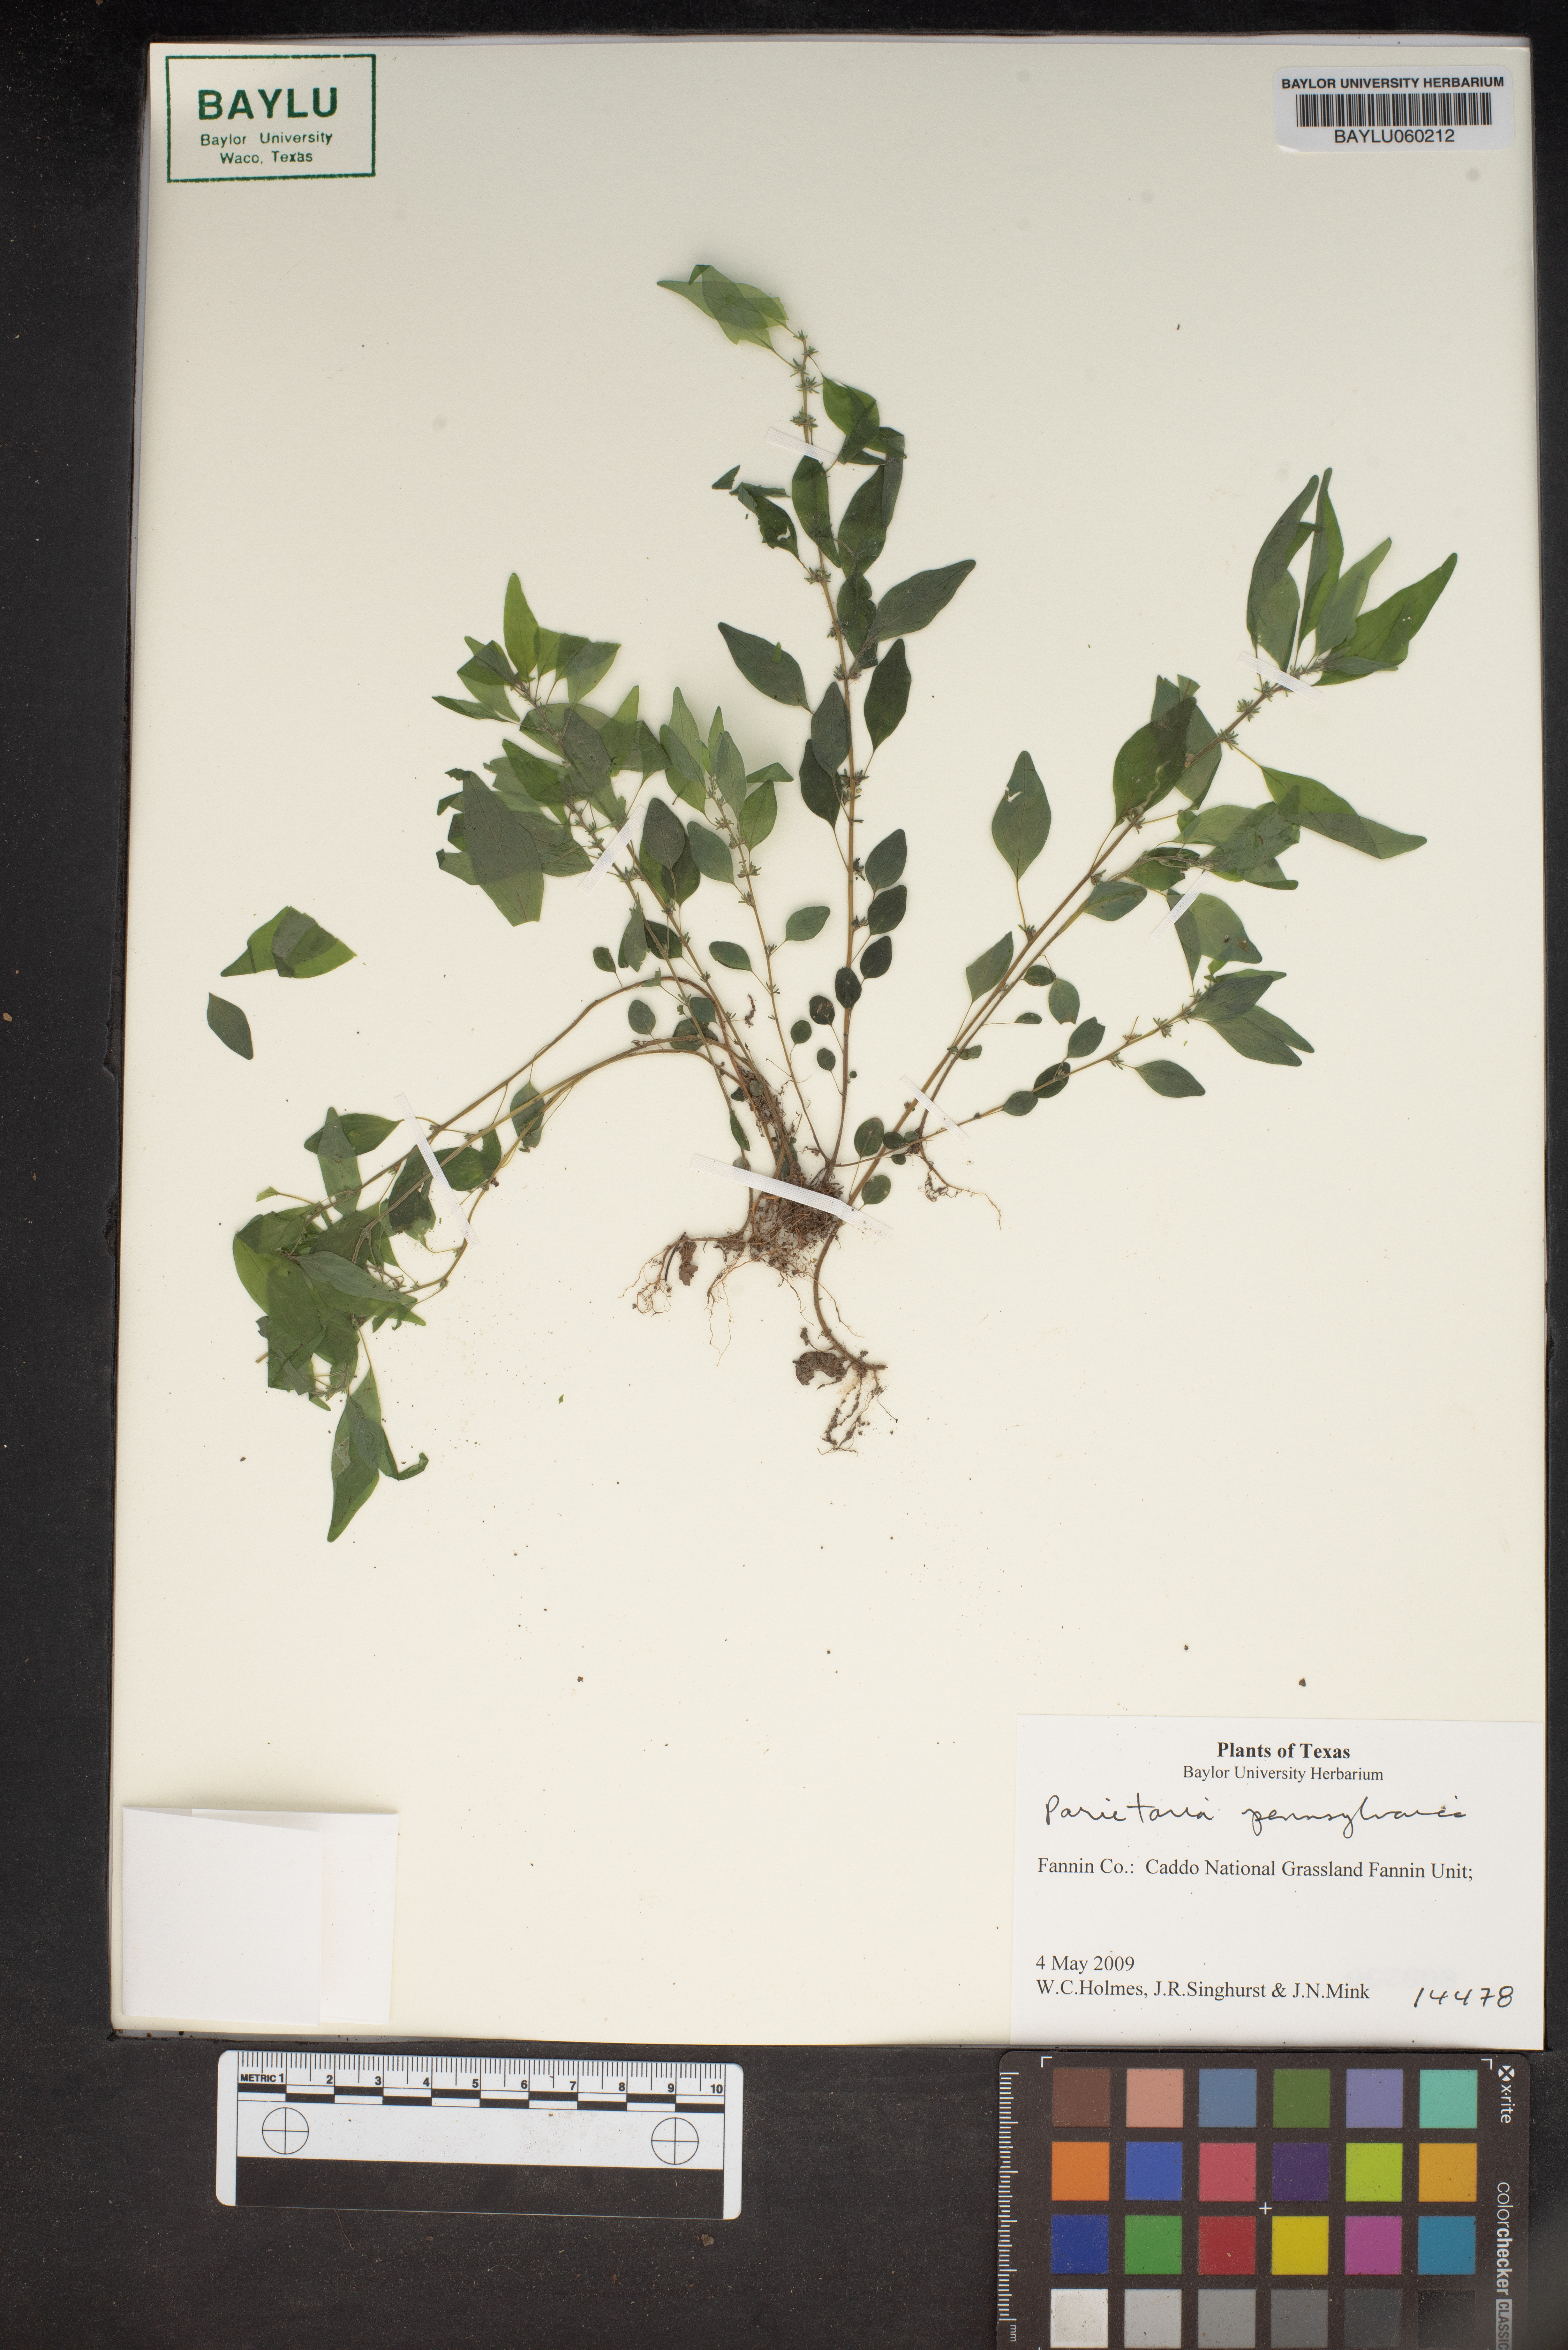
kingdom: Plantae
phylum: Tracheophyta
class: Magnoliopsida
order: Rosales
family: Urticaceae
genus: Parietaria
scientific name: Parietaria pensylvanica
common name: Pennsylvania pellitory
